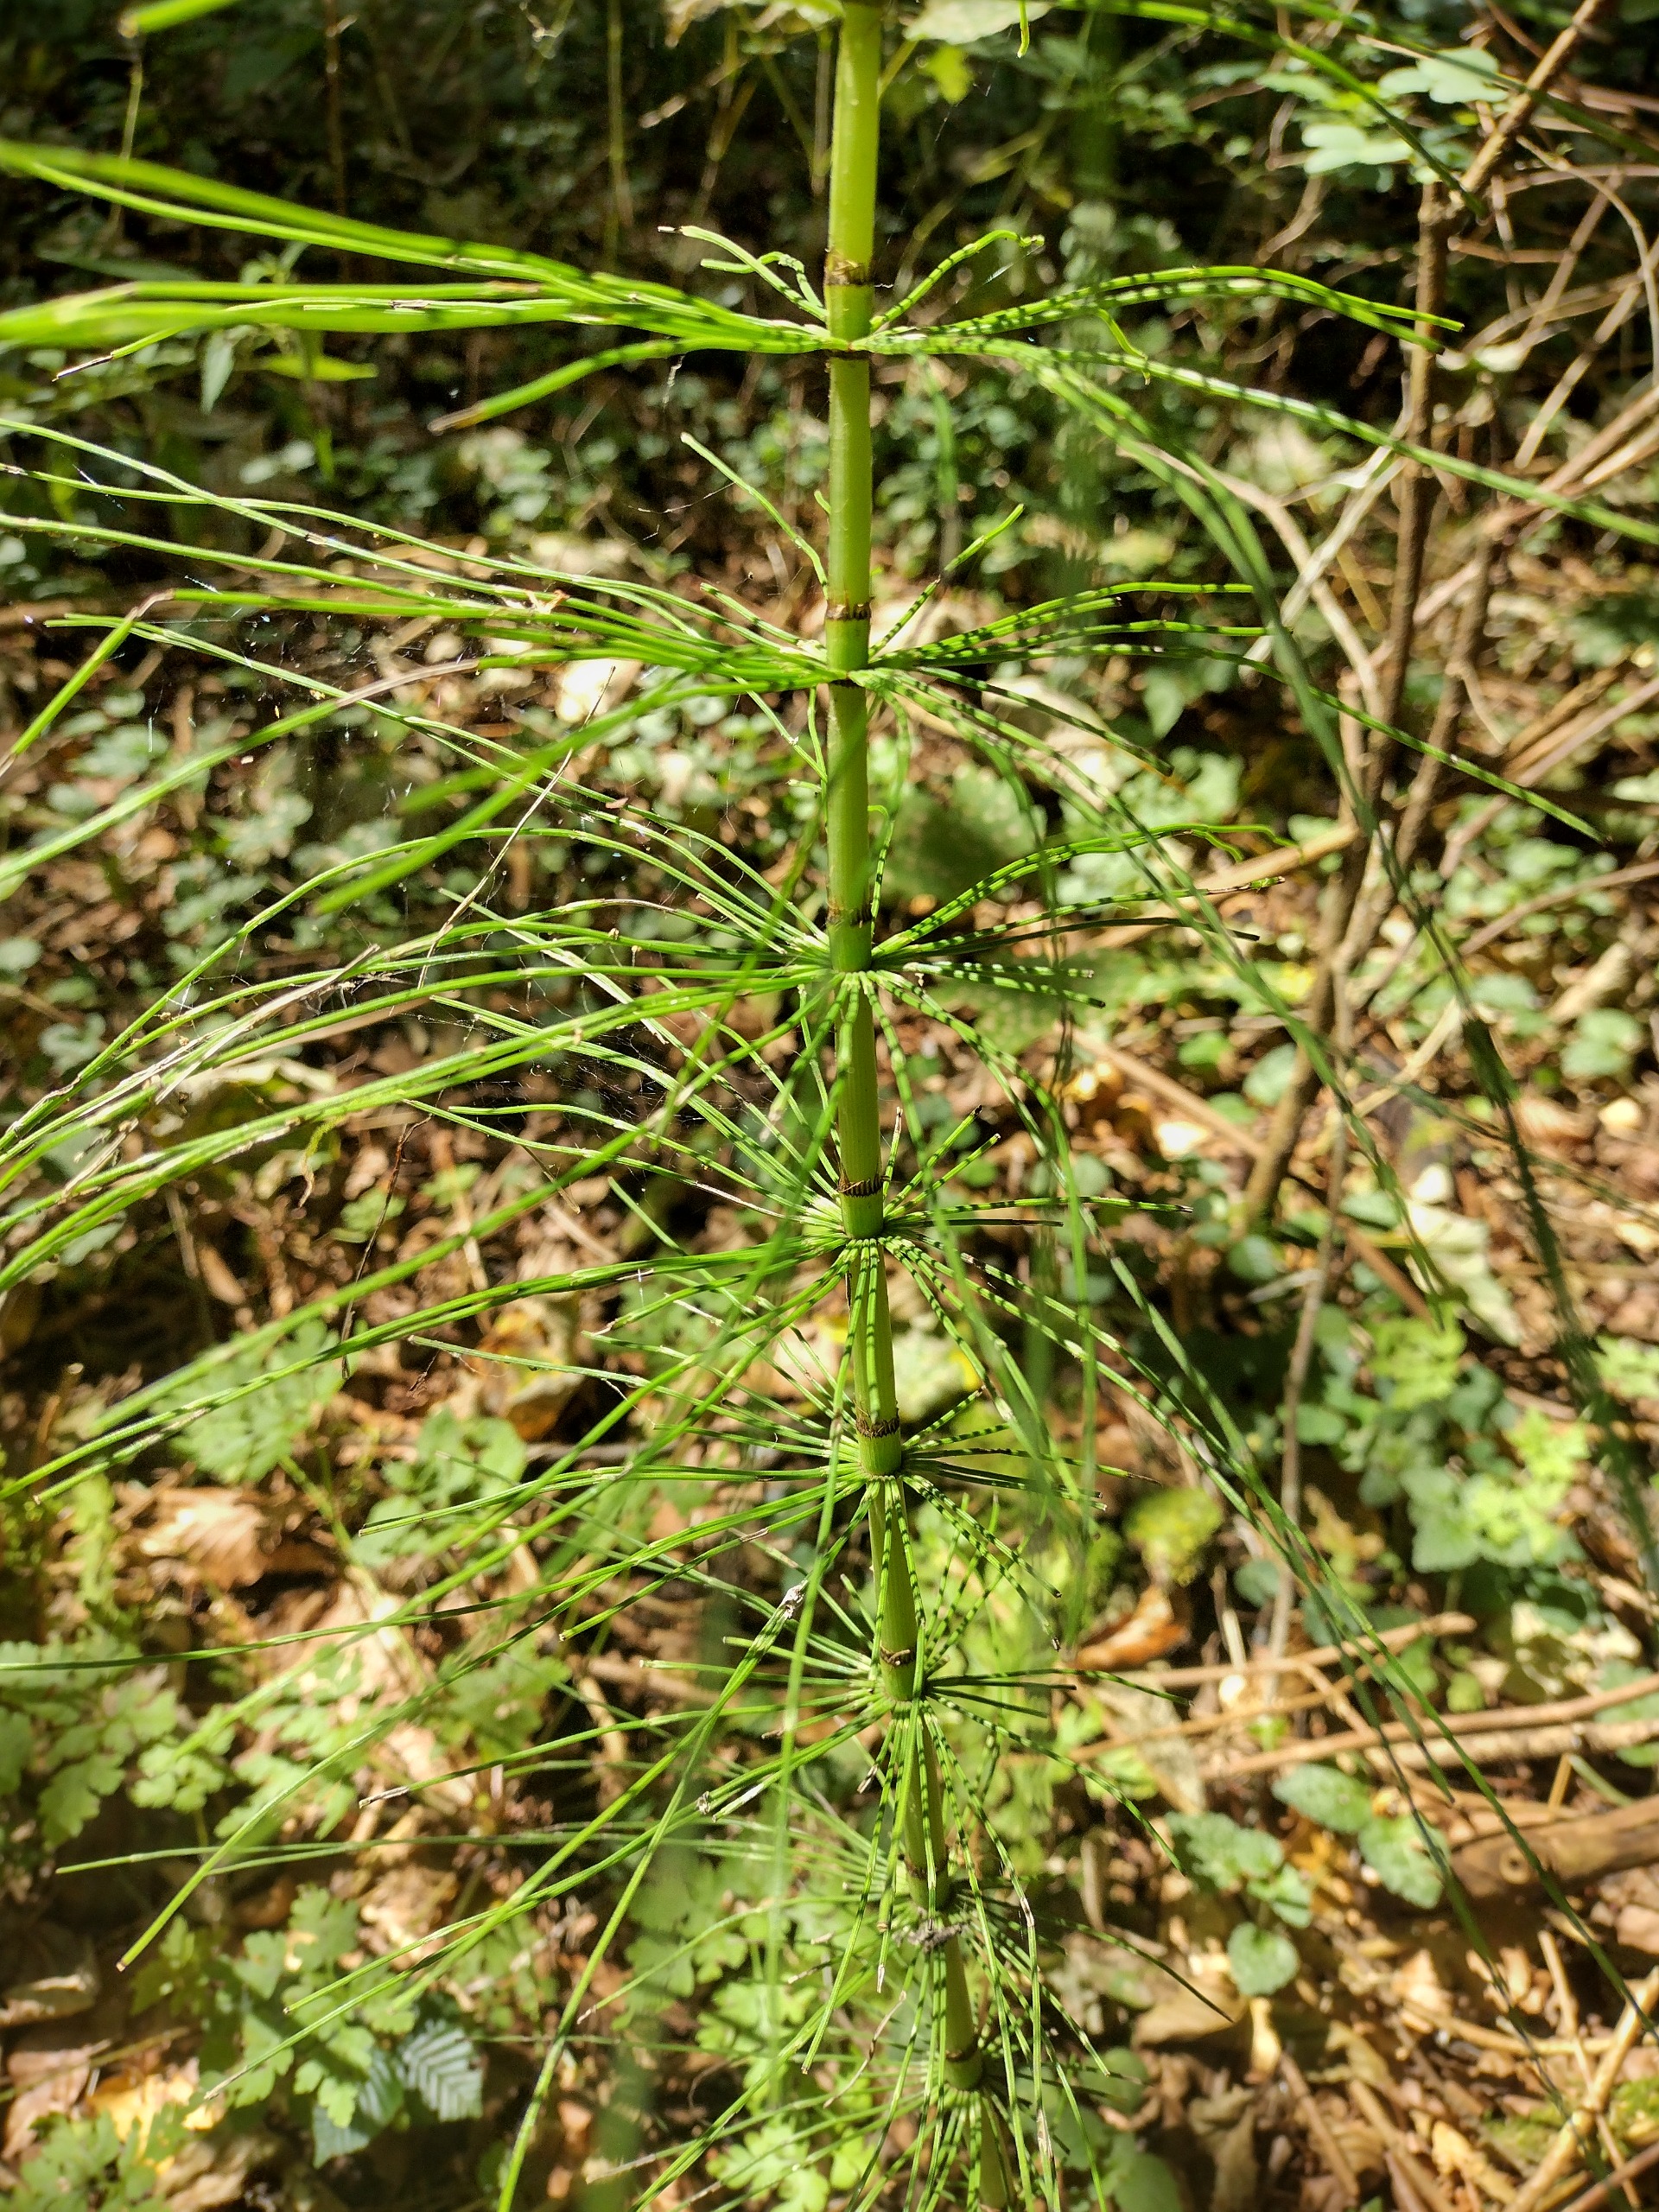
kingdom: Plantae
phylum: Tracheophyta
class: Polypodiopsida
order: Equisetales
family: Equisetaceae
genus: Equisetum
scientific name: Equisetum telmateia
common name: Elfenbens-padderok
